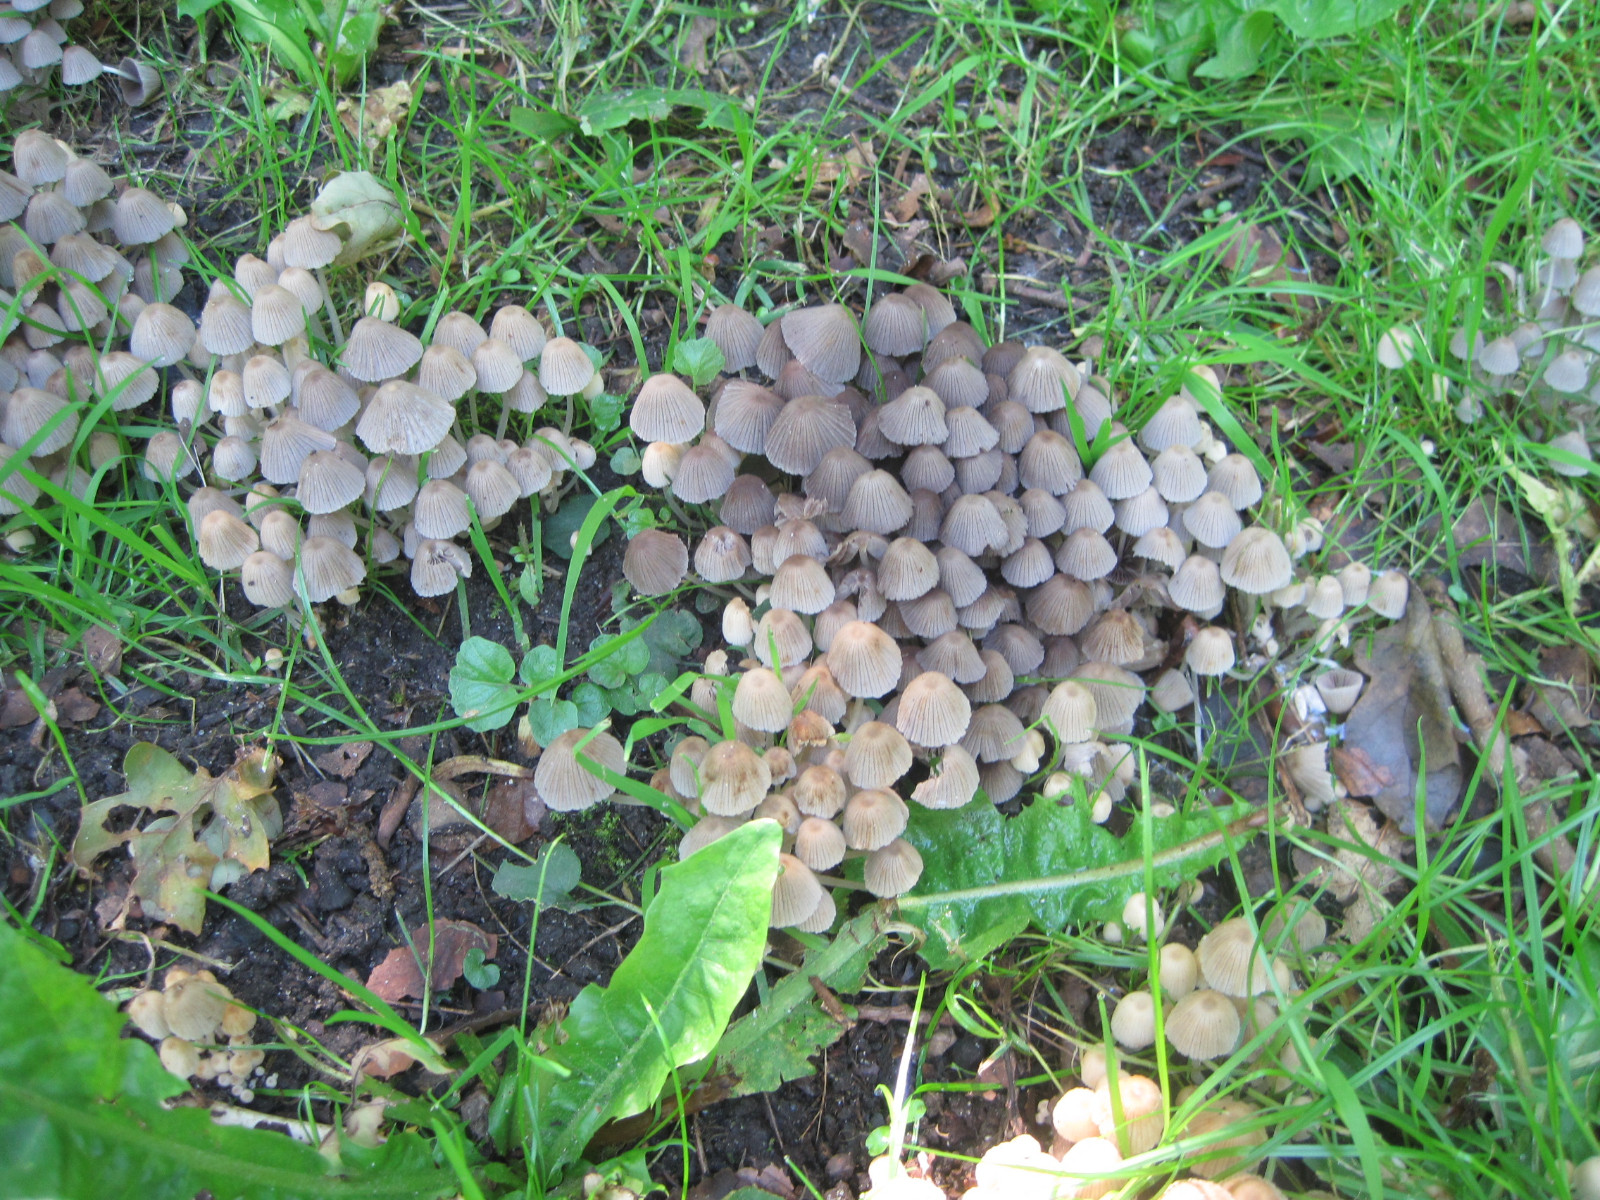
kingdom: Fungi
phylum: Basidiomycota
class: Agaricomycetes
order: Agaricales
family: Psathyrellaceae
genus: Coprinellus
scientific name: Coprinellus disseminatus
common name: bredsået blækhat
